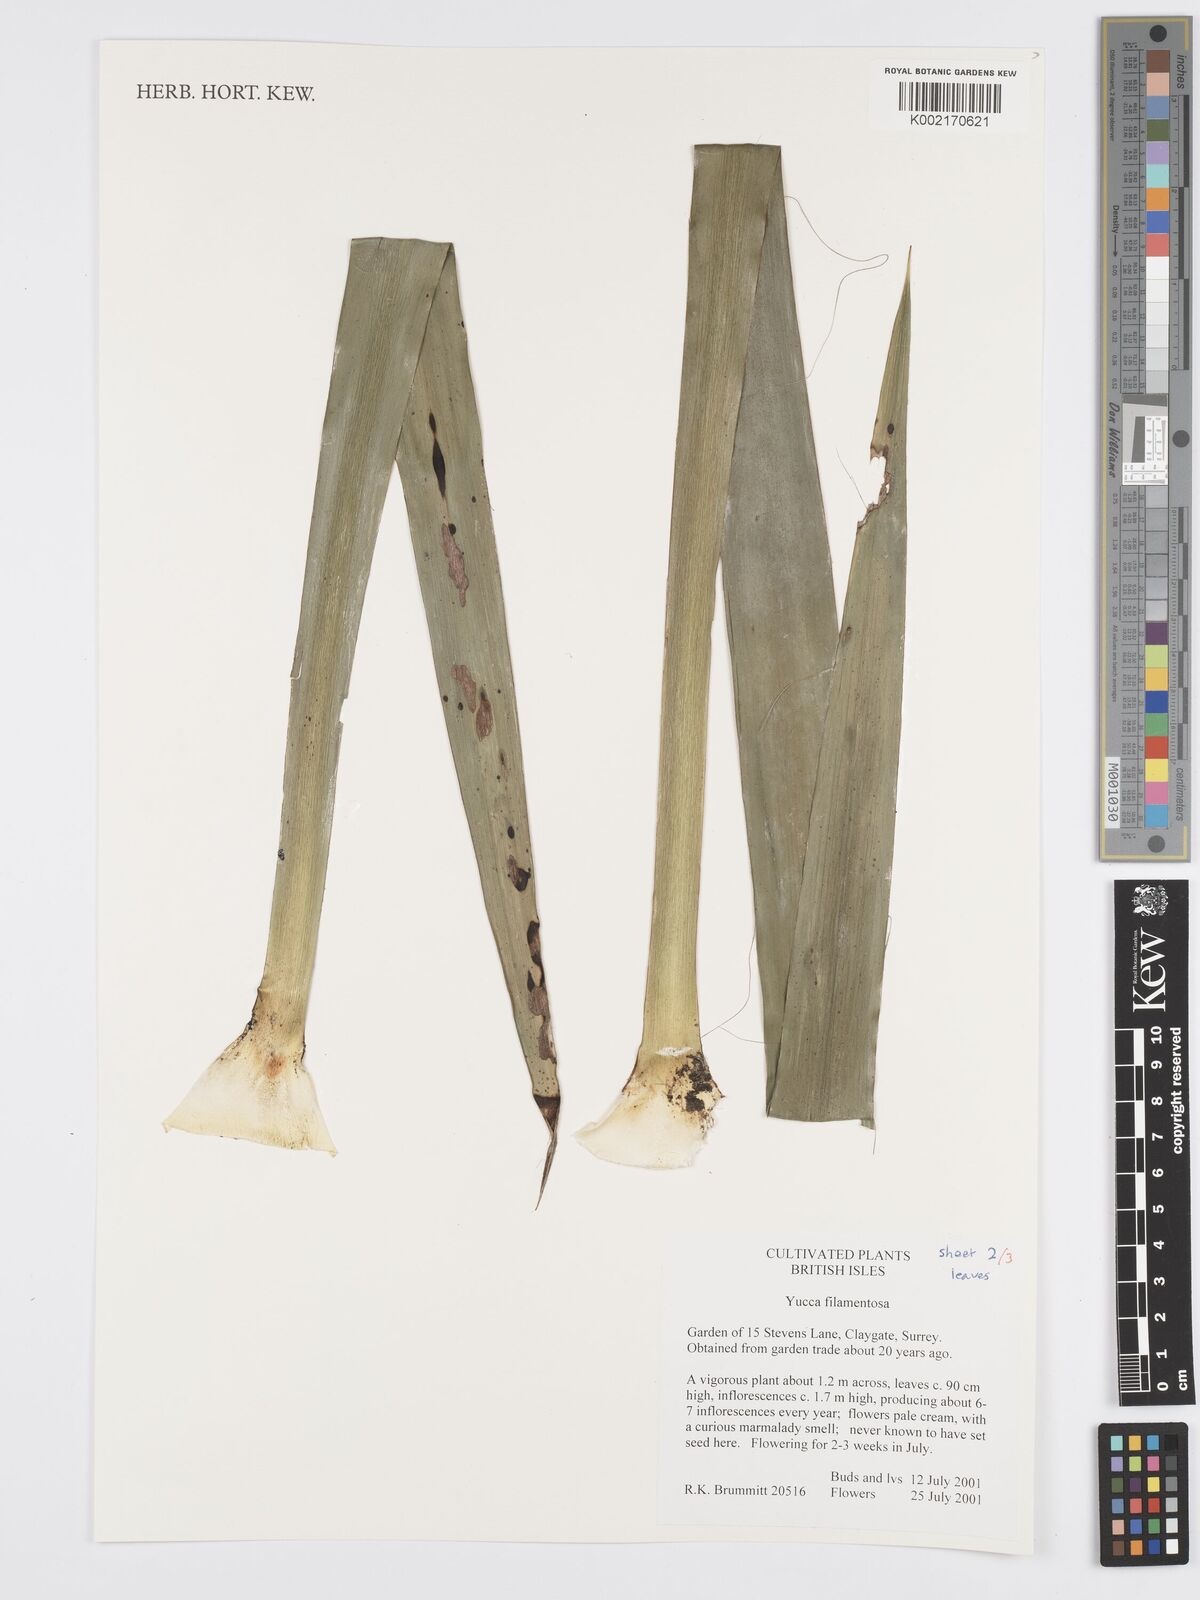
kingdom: Plantae
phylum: Tracheophyta
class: Liliopsida
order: Asparagales
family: Asparagaceae
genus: Yucca
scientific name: Yucca filamentosa
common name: Adam's-needle
